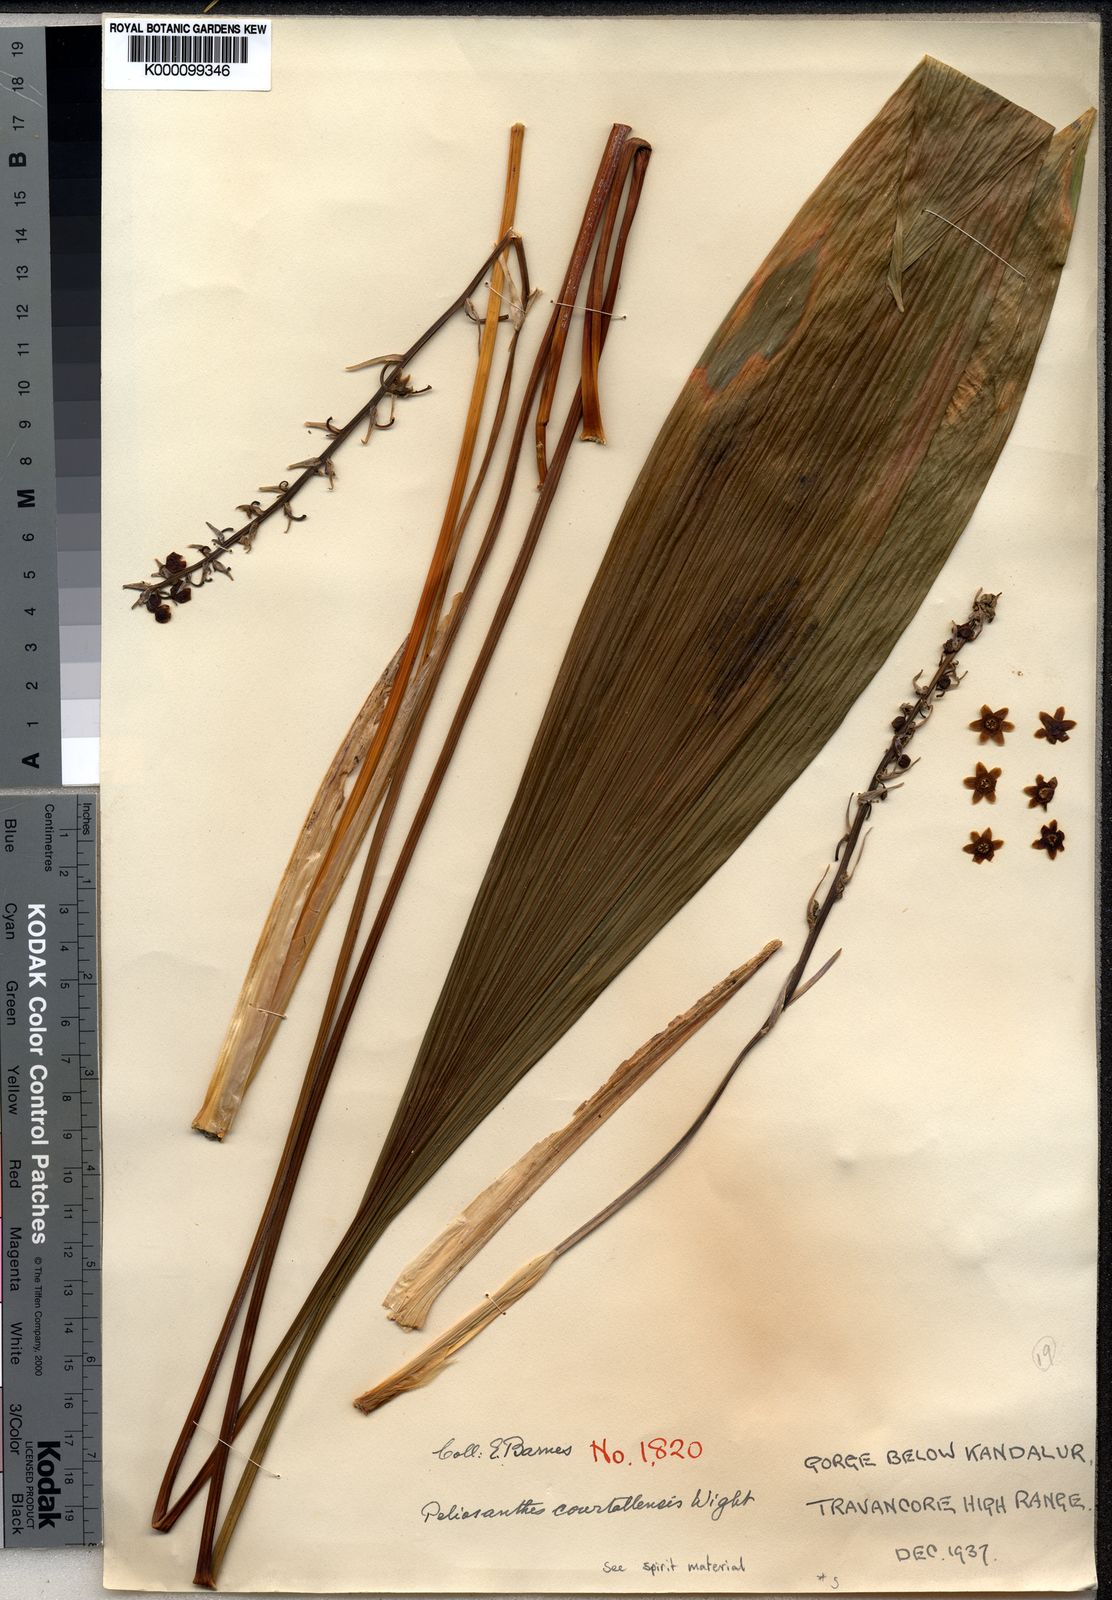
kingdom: Plantae
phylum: Tracheophyta
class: Liliopsida
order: Asparagales
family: Asparagaceae
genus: Peliosanthes
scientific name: Peliosanthes teta
